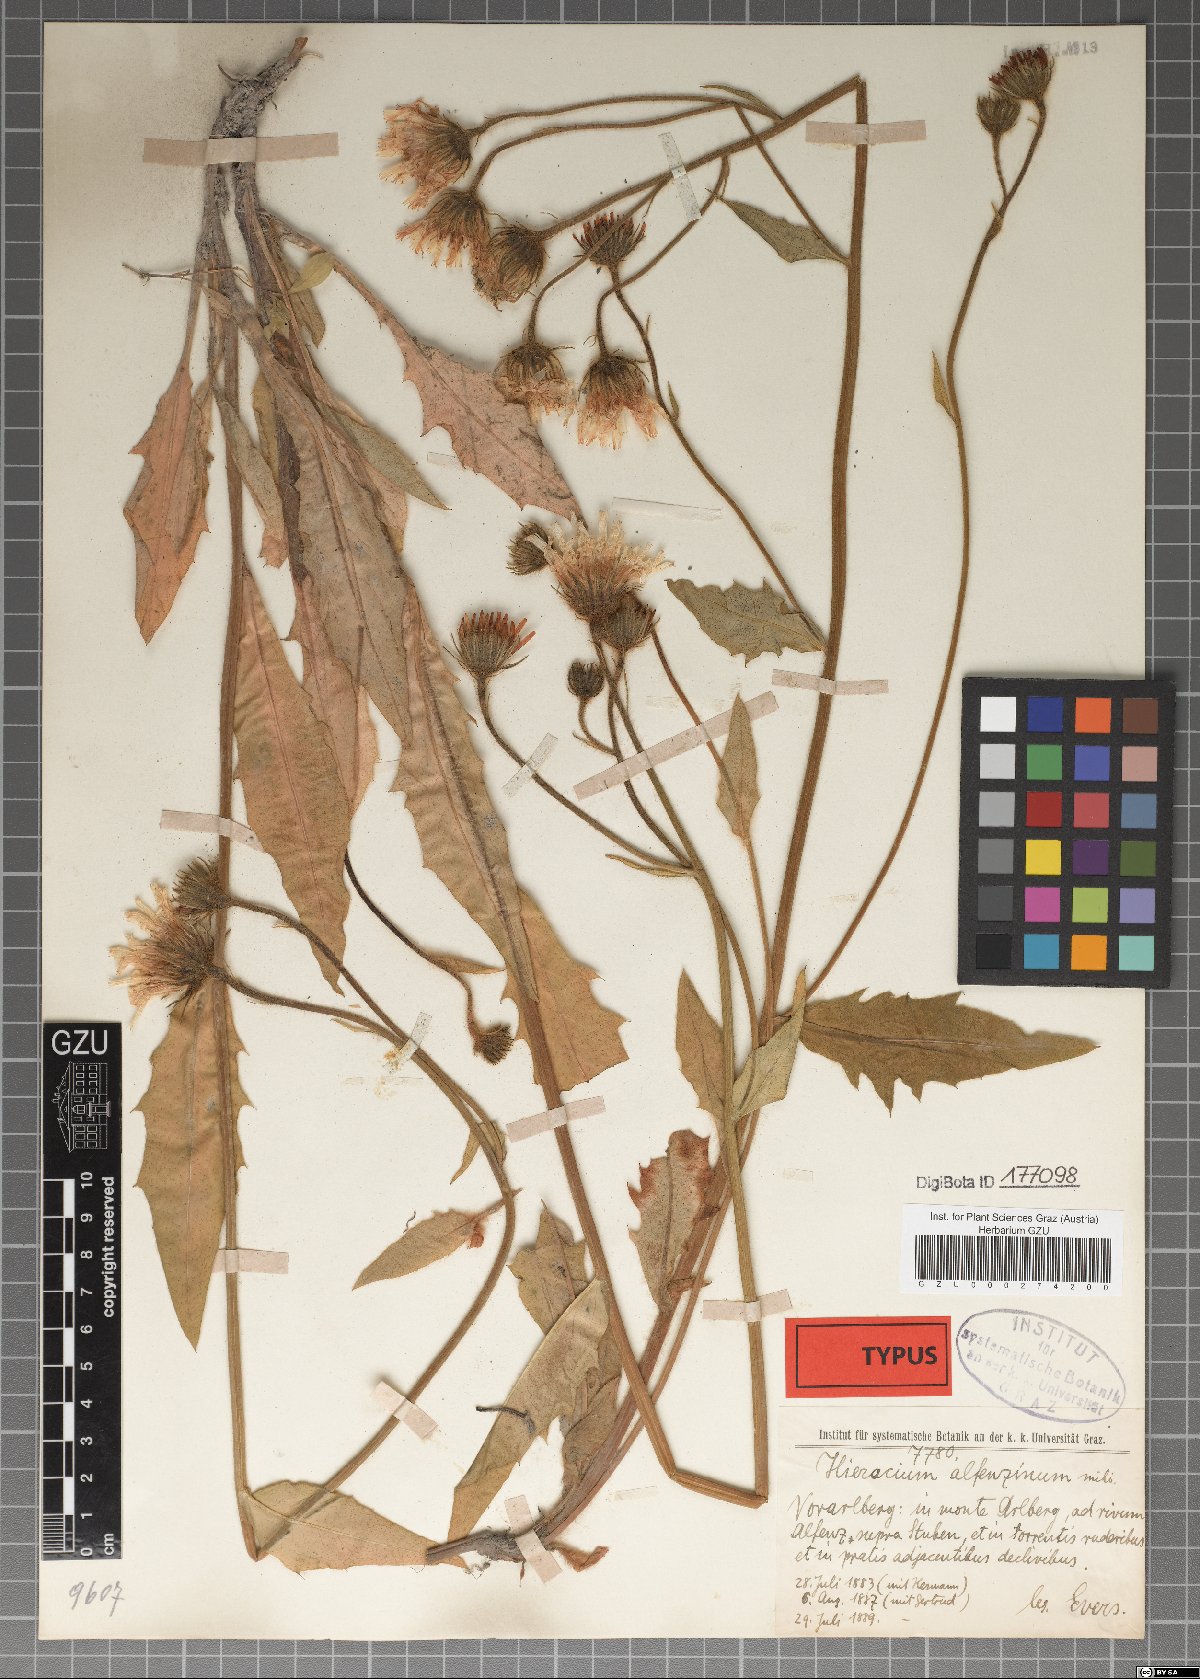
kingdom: Plantae
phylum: Tracheophyta
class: Magnoliopsida
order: Asterales
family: Asteraceae
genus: Hieracium
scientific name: Hieracium porrectum
